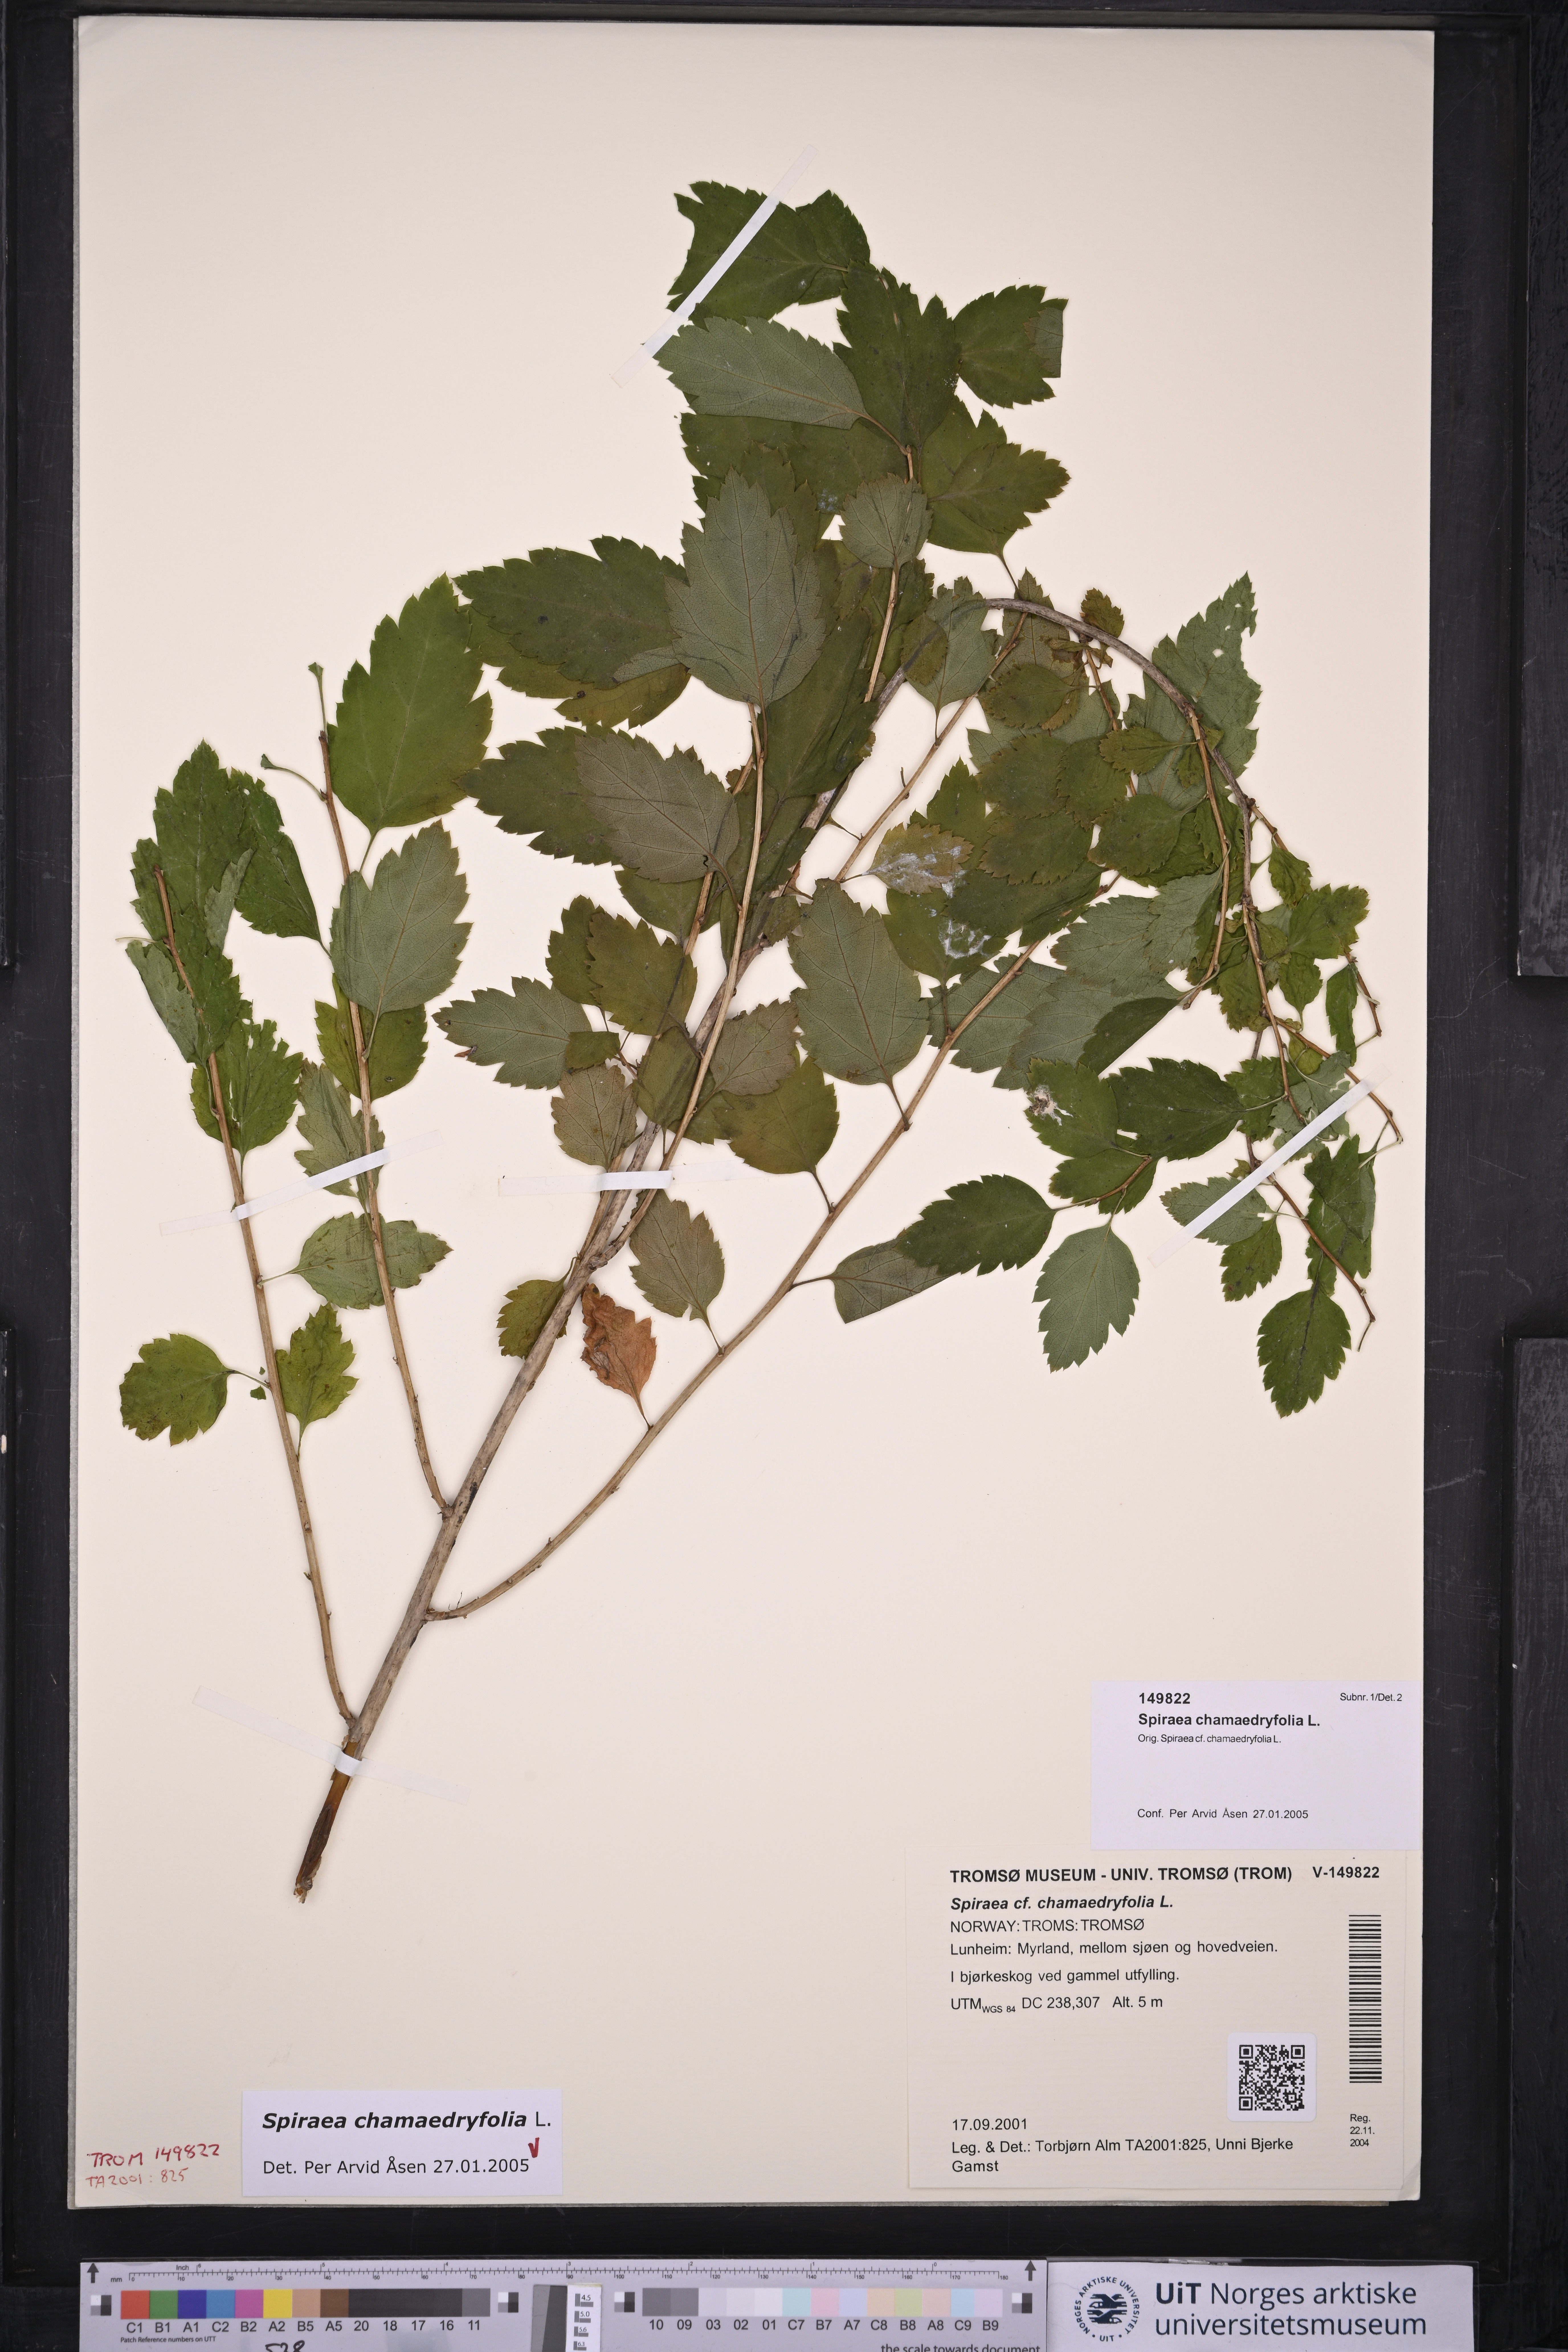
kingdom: Plantae
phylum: Tracheophyta
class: Magnoliopsida
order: Rosales
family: Rosaceae
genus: Spiraea
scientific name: Spiraea chamaedryfolia
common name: Elm-leaved spiraea
